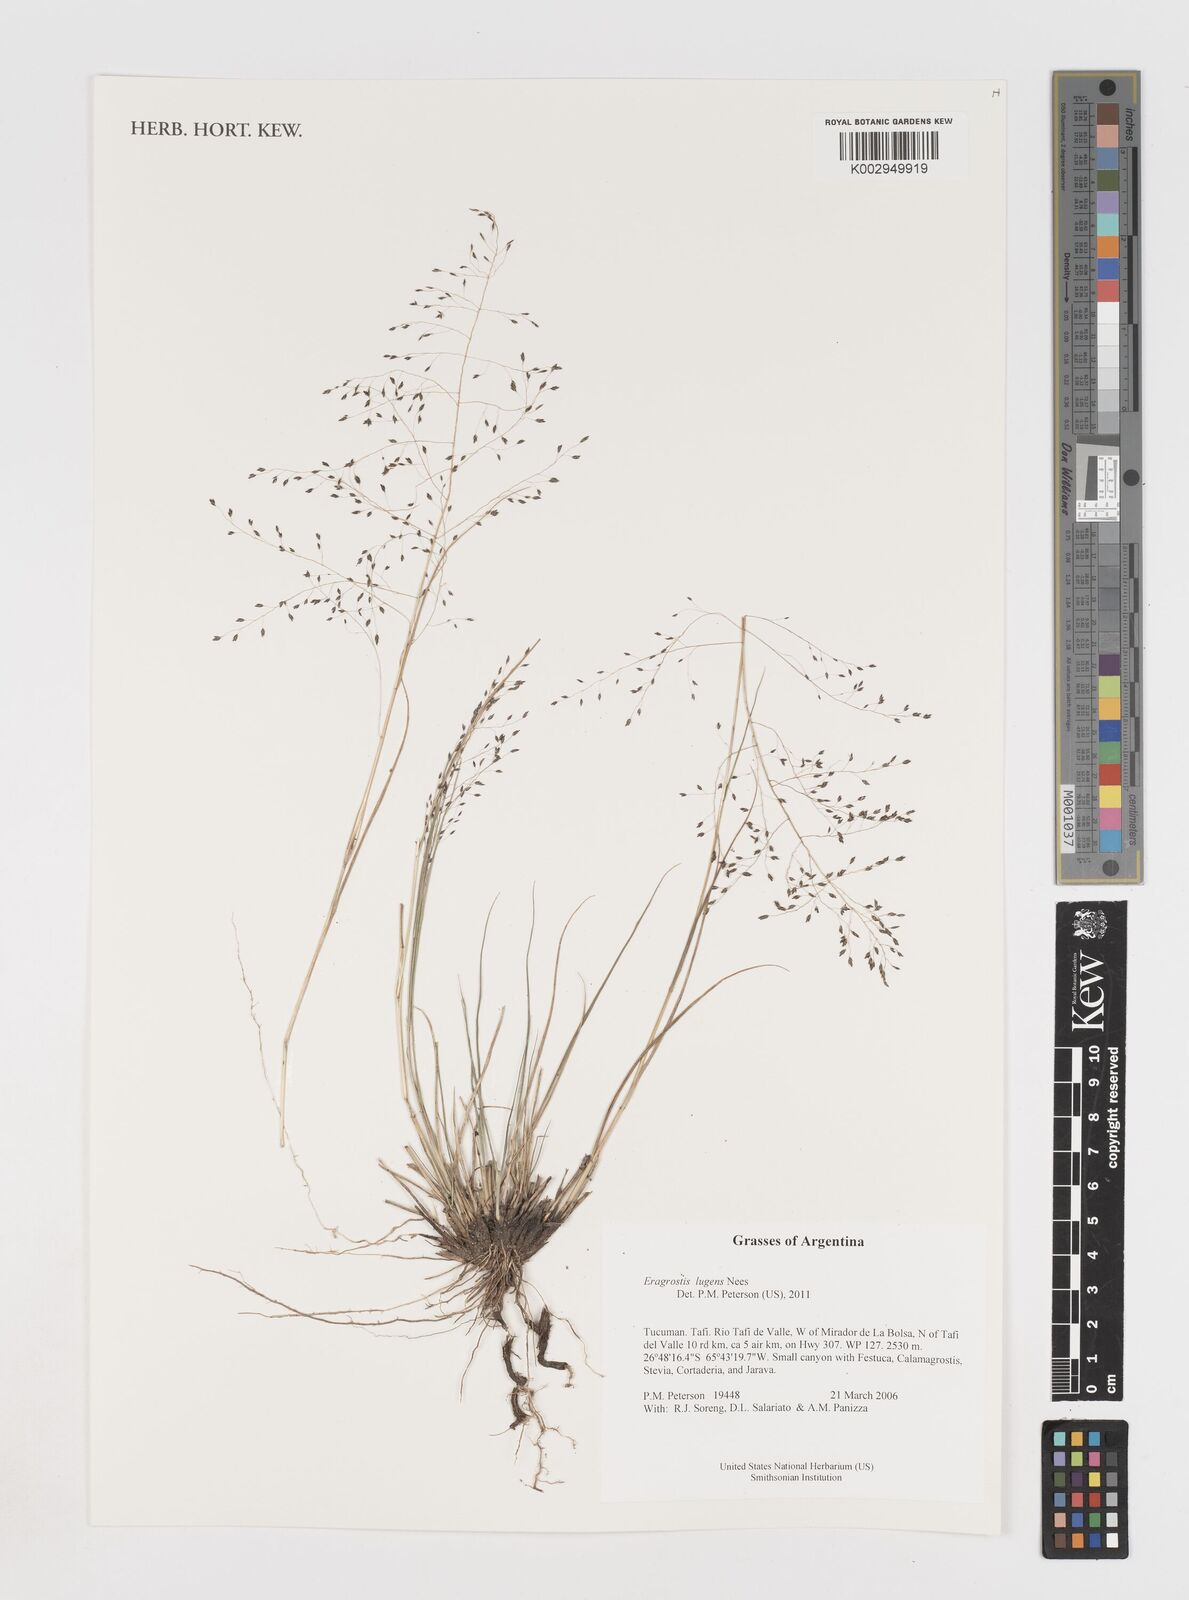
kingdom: Plantae
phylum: Tracheophyta
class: Liliopsida
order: Poales
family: Poaceae
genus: Eragrostis
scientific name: Eragrostis lugens
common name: Mourning love grass
